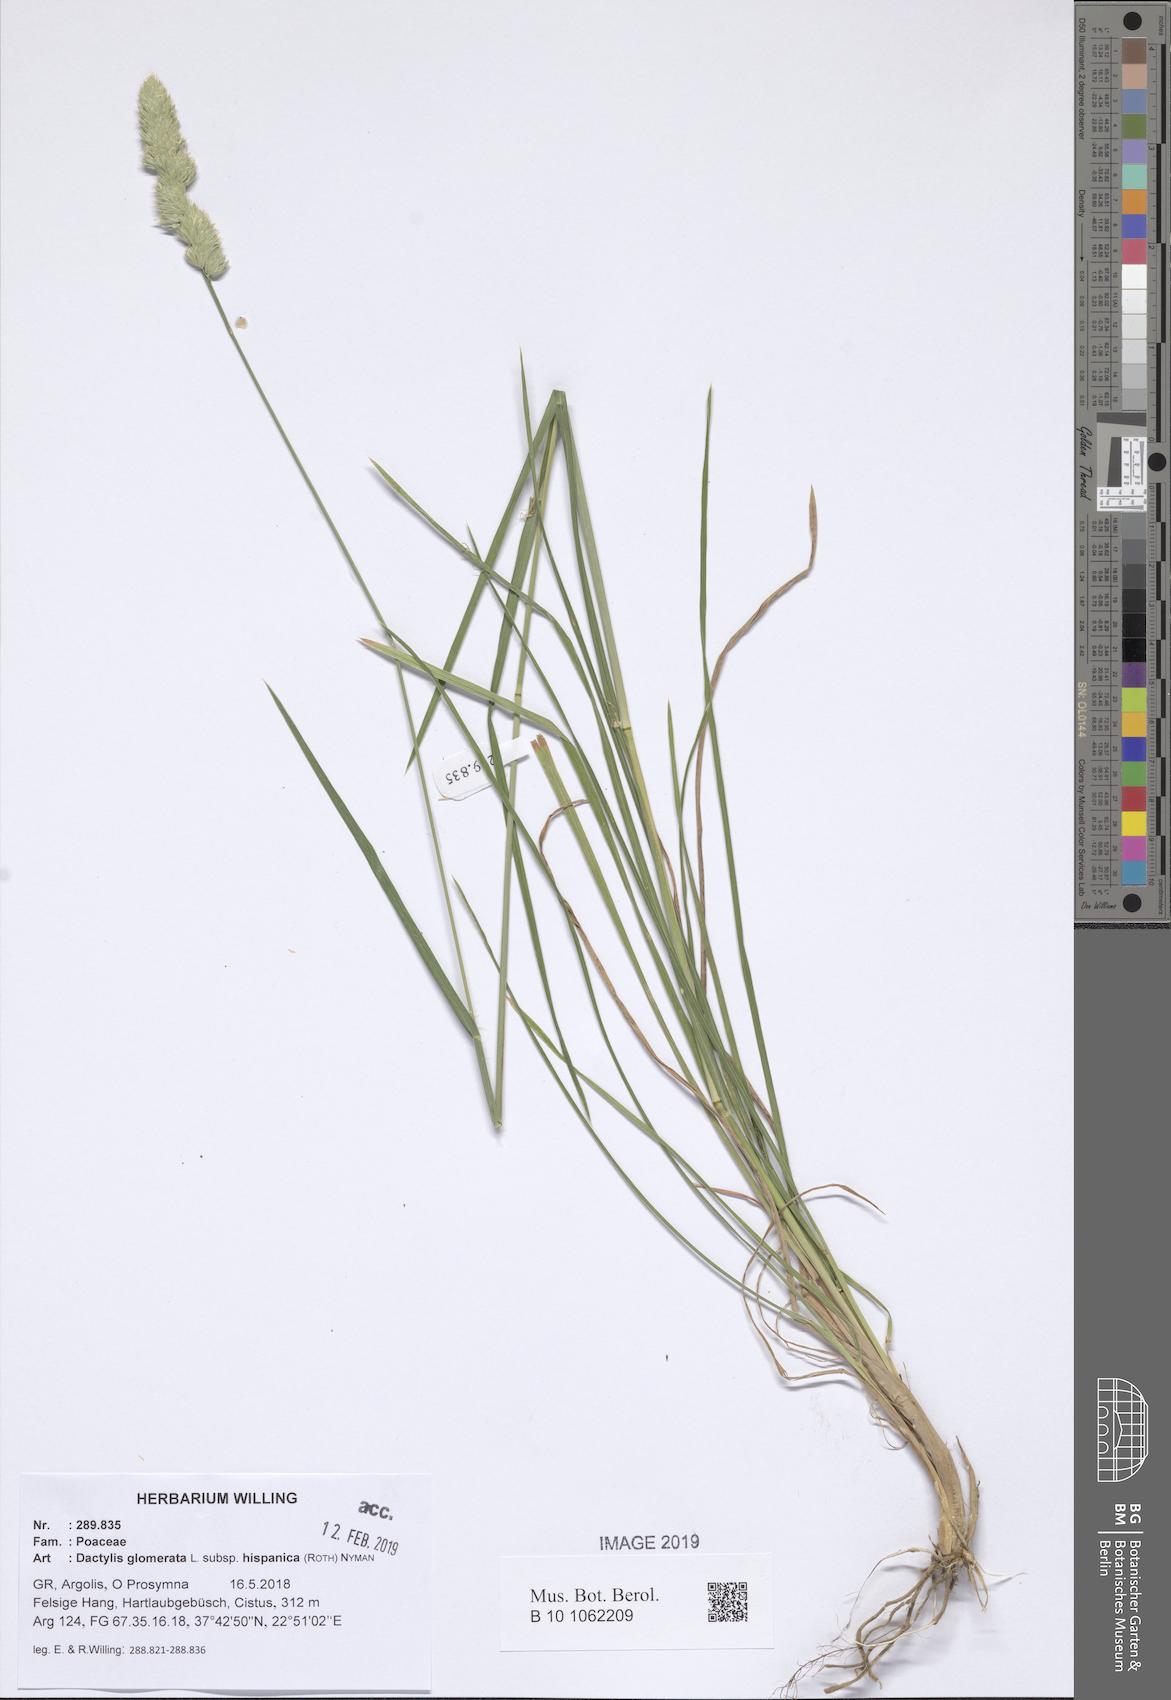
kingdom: Plantae
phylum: Tracheophyta
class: Liliopsida
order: Poales
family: Poaceae
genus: Dactylis
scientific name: Dactylis glomerata
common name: Orchardgrass
